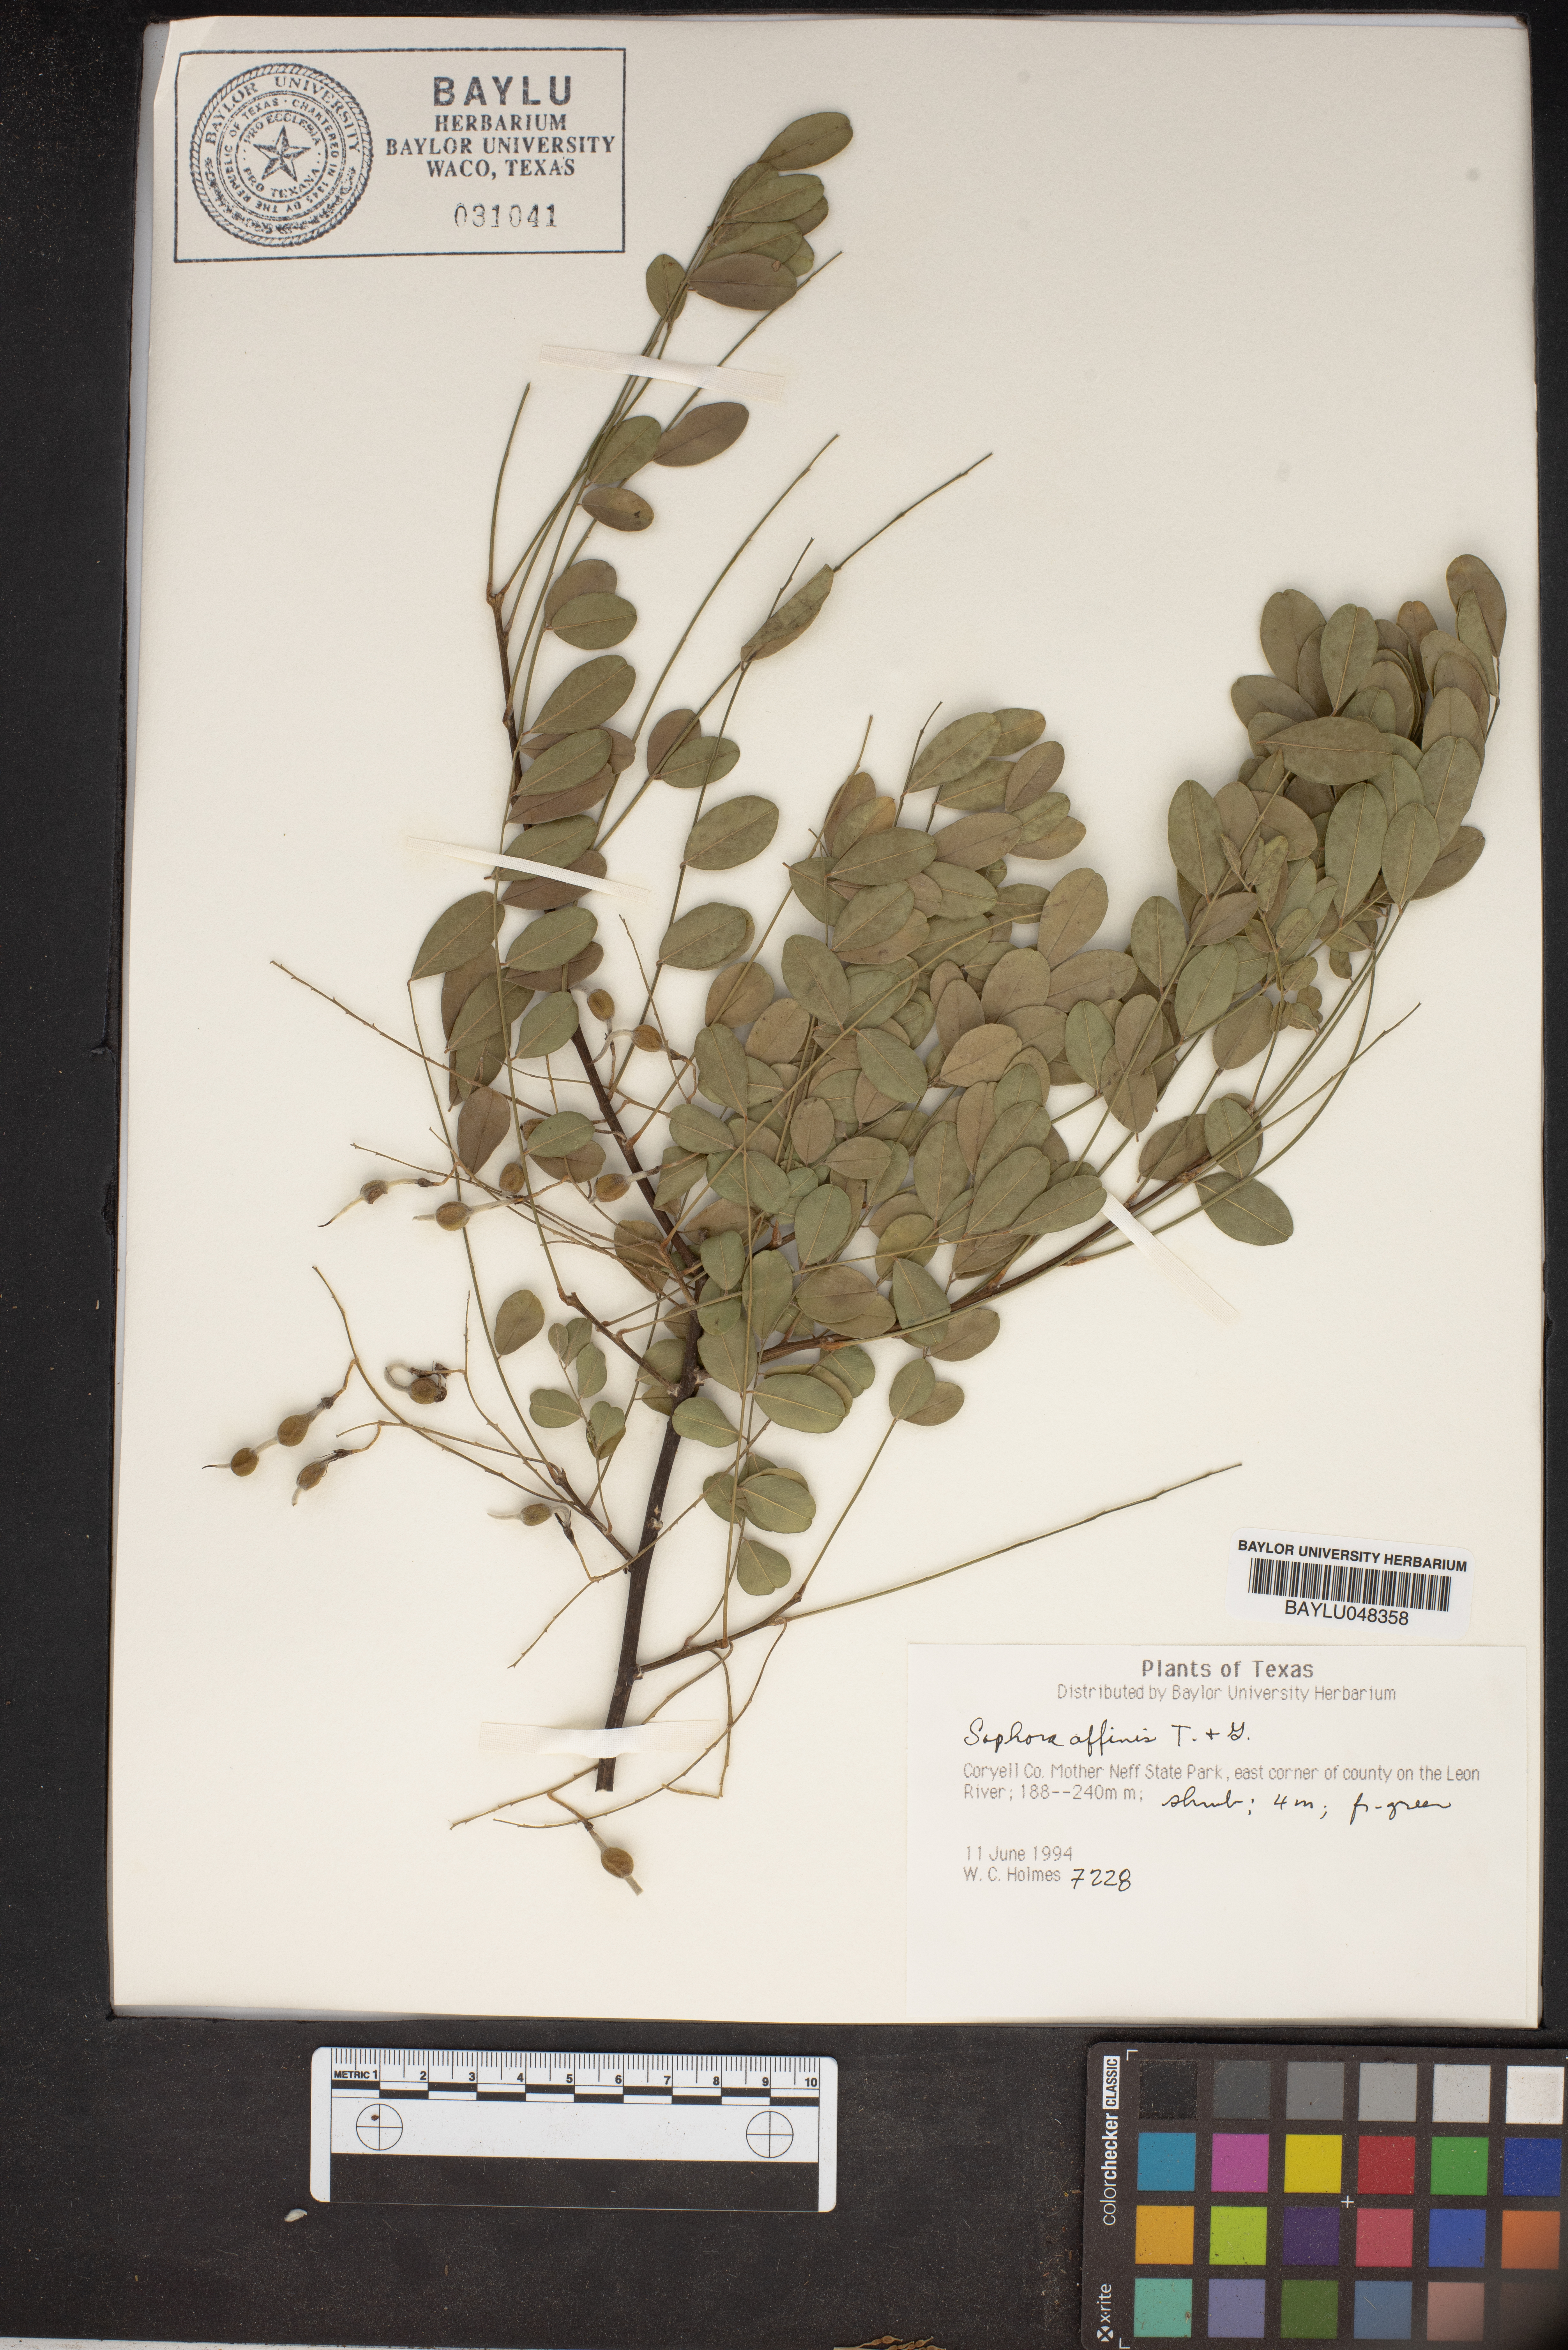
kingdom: Plantae
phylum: Tracheophyta
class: Magnoliopsida
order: Fabales
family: Fabaceae
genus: Styphnolobium
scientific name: Styphnolobium affine
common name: Texas sophora
